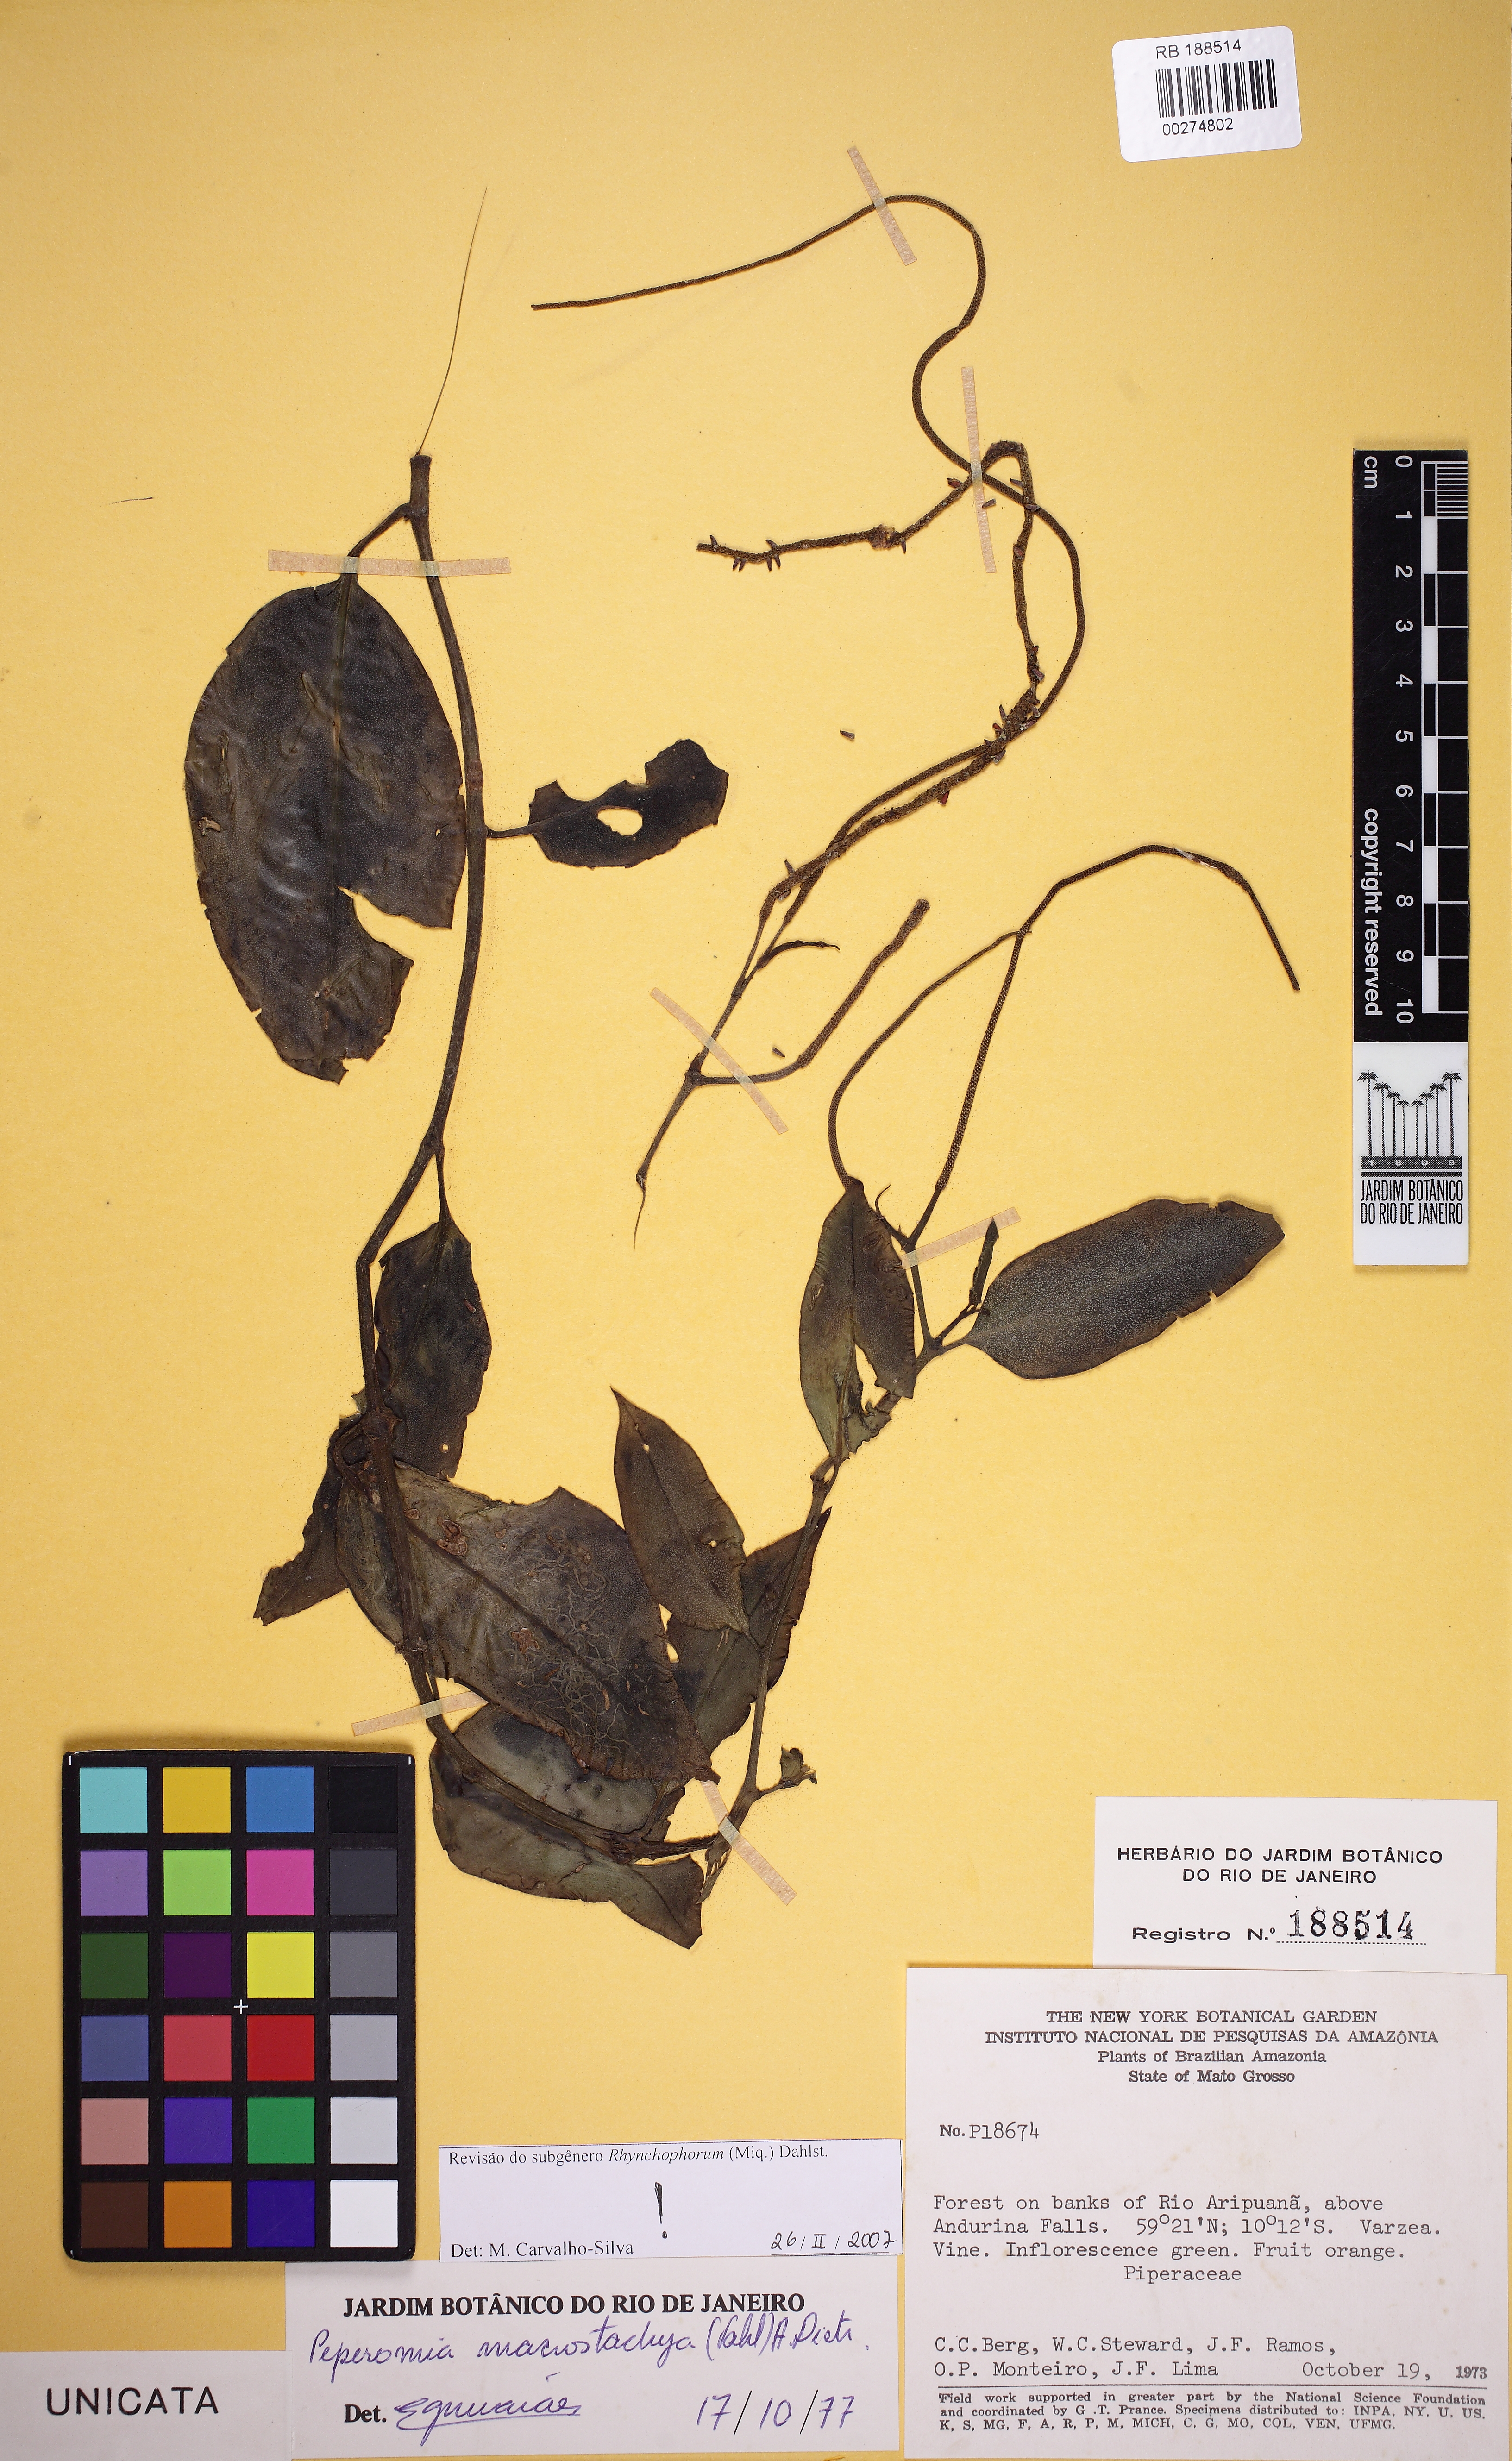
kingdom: Plantae
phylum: Tracheophyta
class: Magnoliopsida
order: Piperales
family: Piperaceae
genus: Peperomia
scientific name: Peperomia macrostachyos
